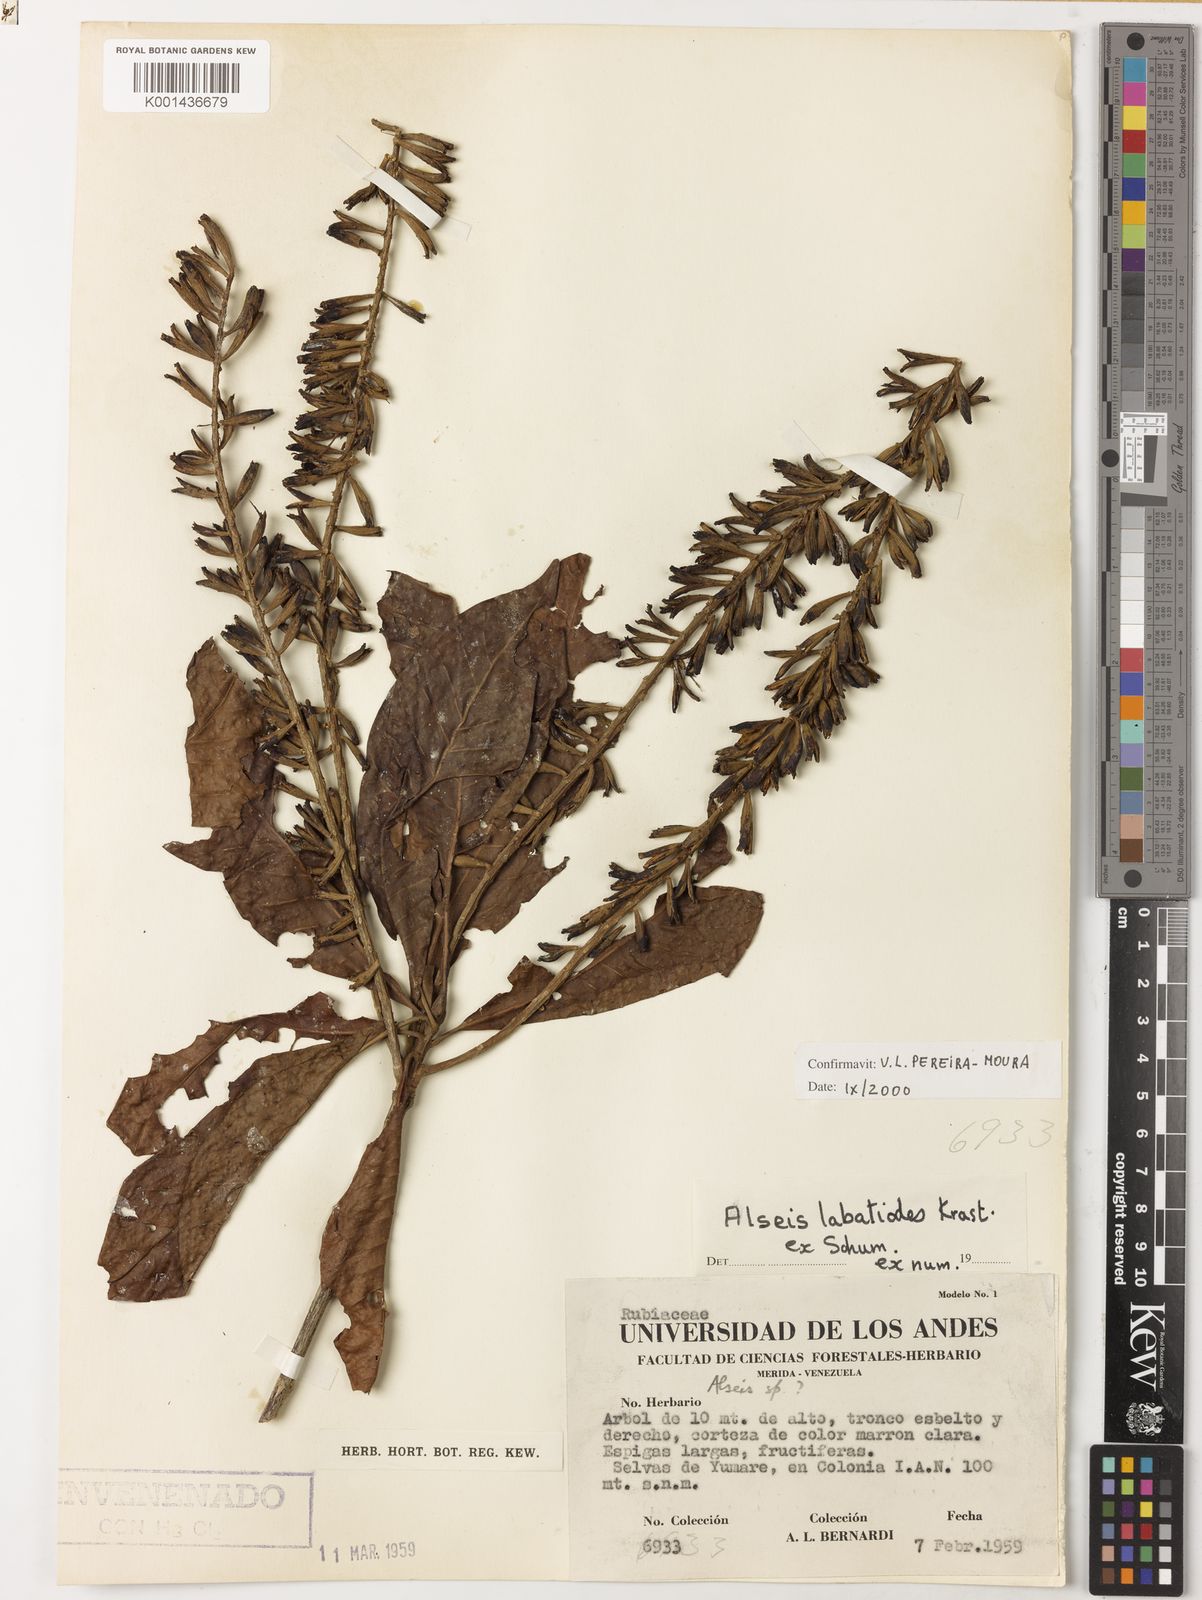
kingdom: Plantae
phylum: Tracheophyta
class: Magnoliopsida
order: Gentianales
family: Rubiaceae
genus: Alseis
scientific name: Alseis labatioides
